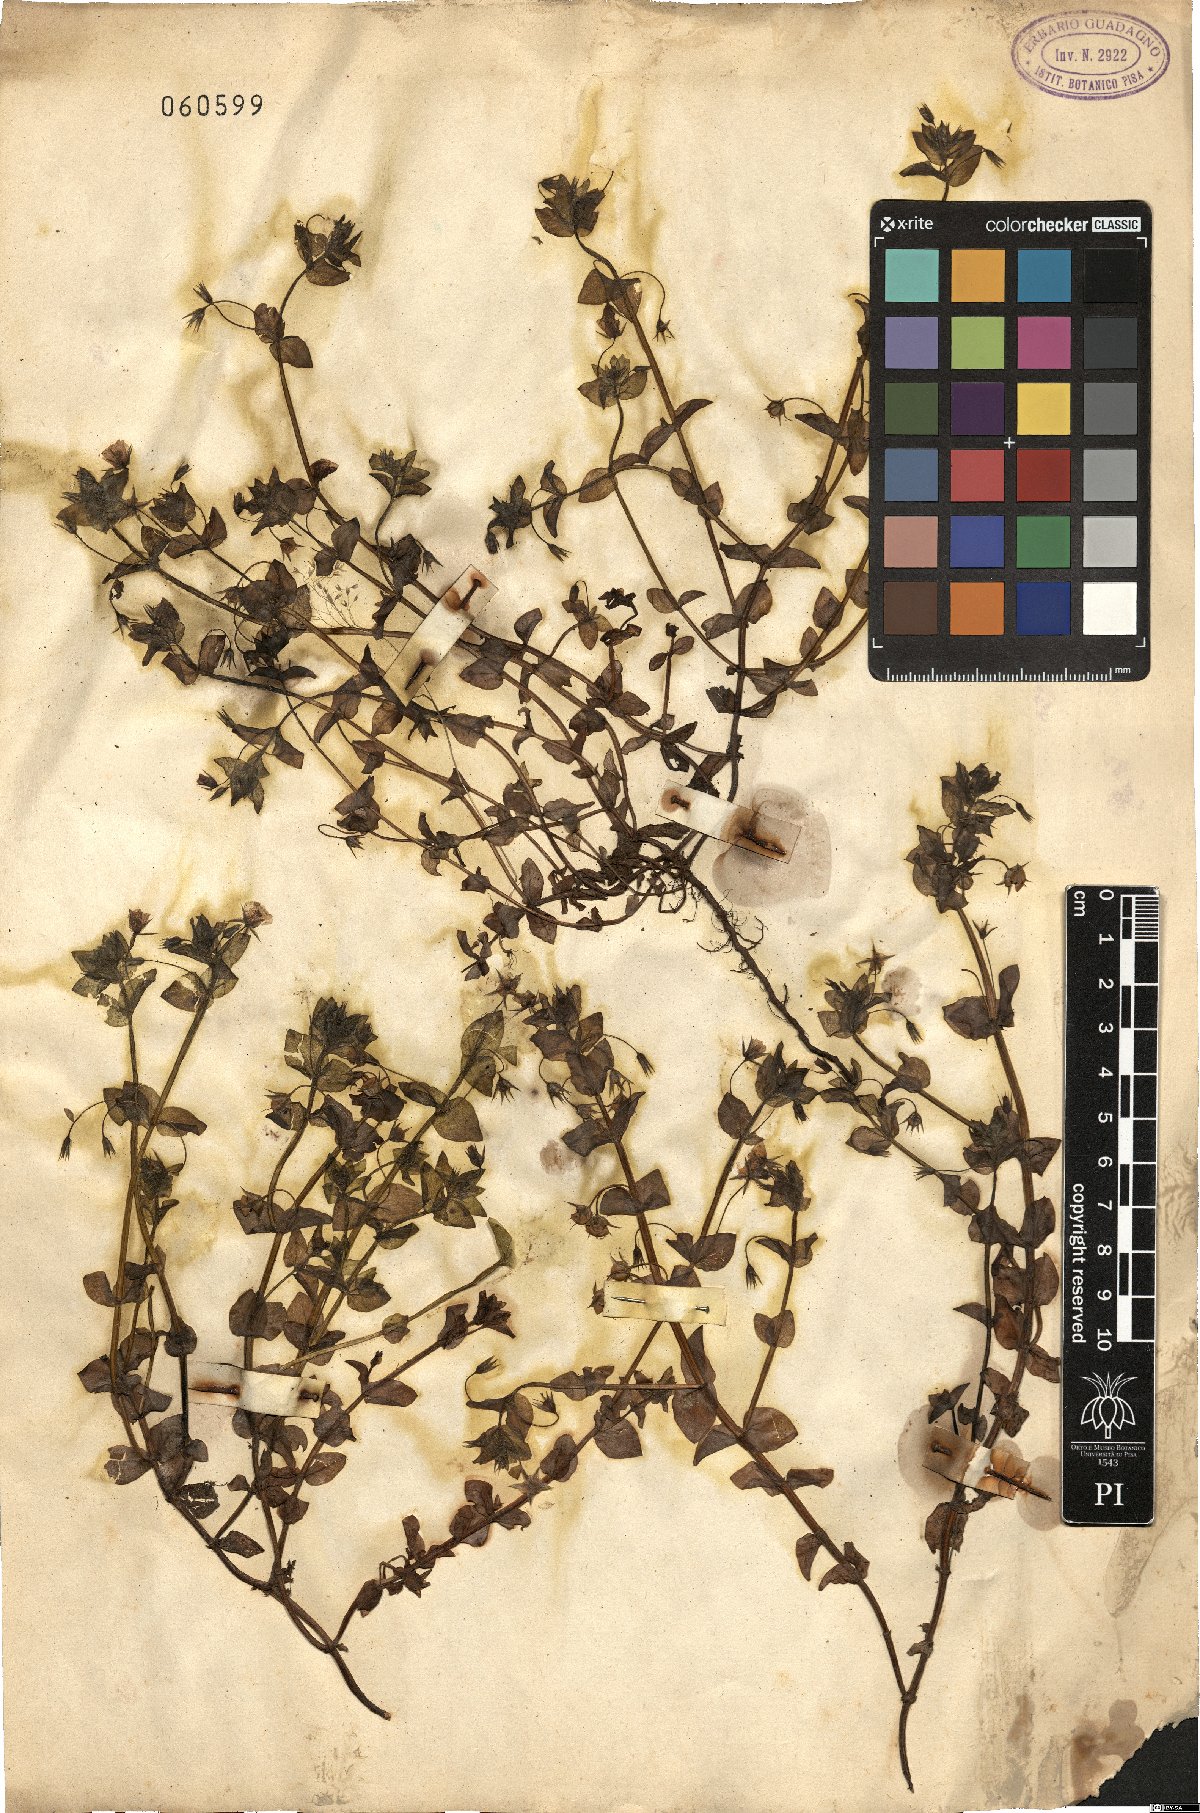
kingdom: Plantae
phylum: Tracheophyta
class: Magnoliopsida
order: Caryophyllales
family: Caryophyllaceae
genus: Stellaria
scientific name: Stellaria media
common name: Common chickweed
